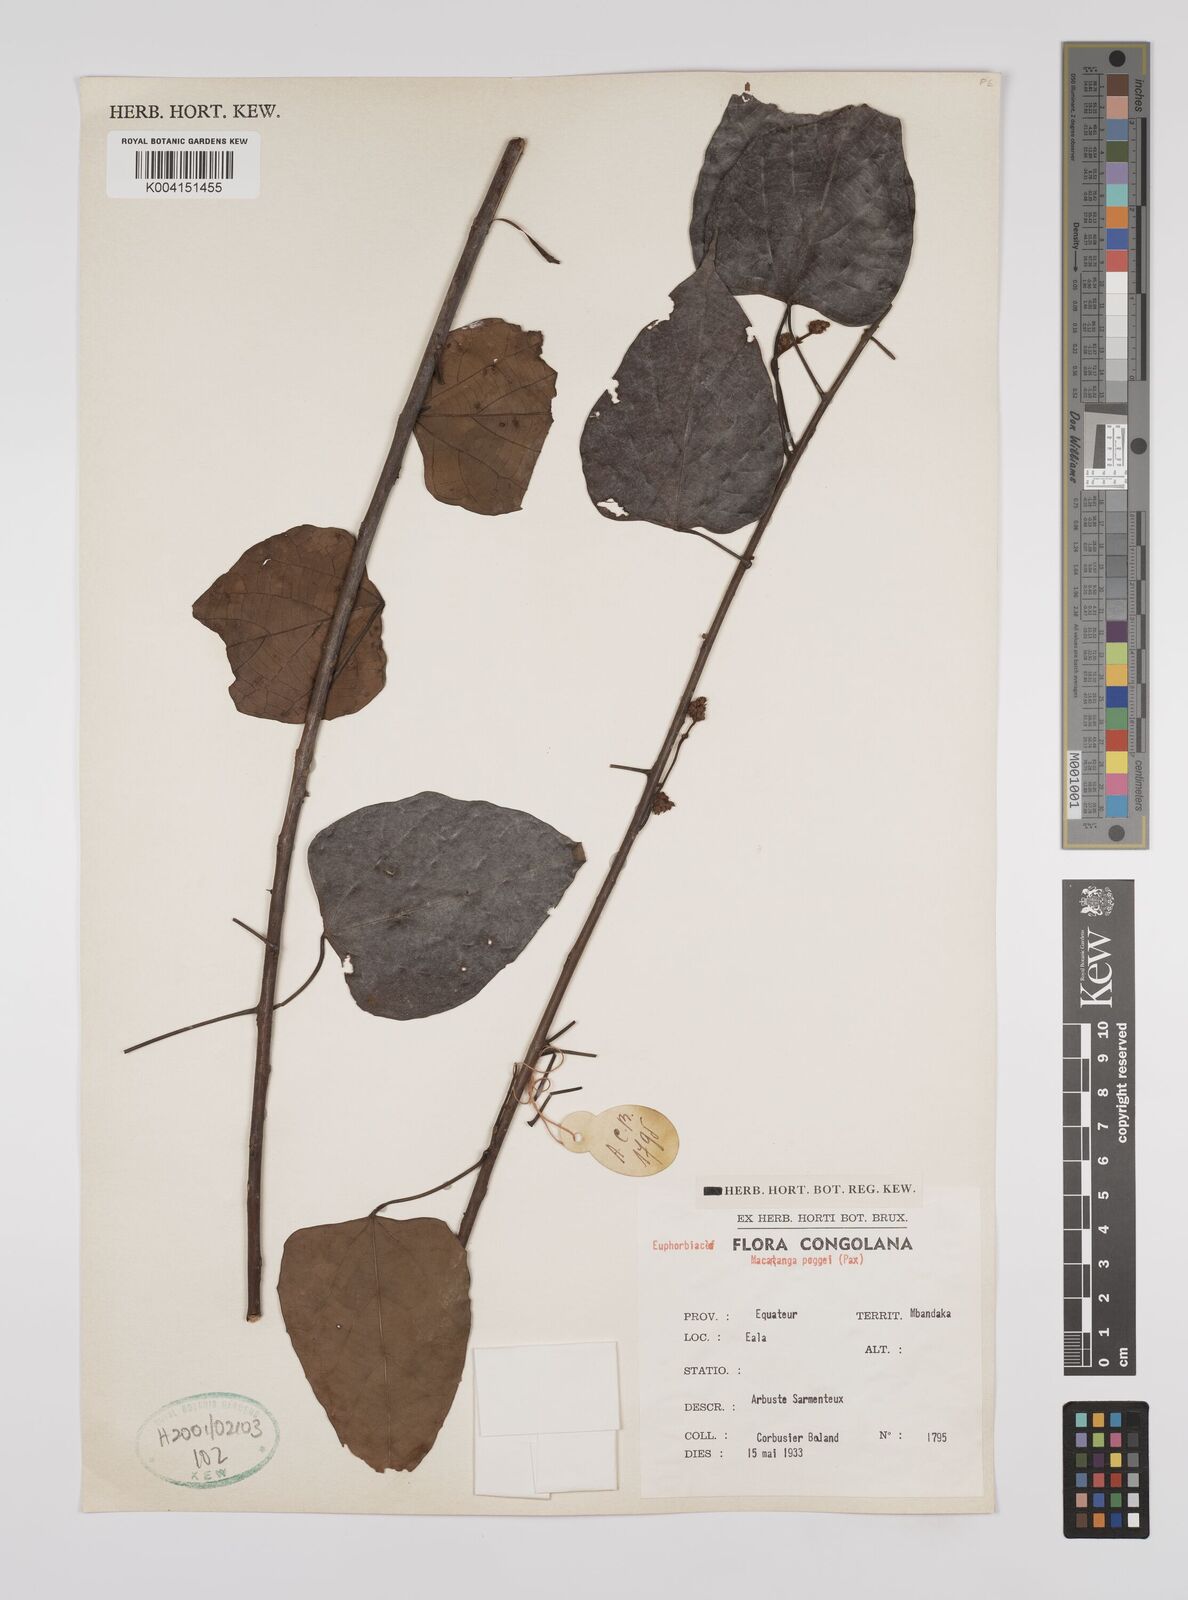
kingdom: Plantae
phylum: Tracheophyta
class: Magnoliopsida
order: Malpighiales
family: Euphorbiaceae
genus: Macaranga
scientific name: Macaranga poggei
